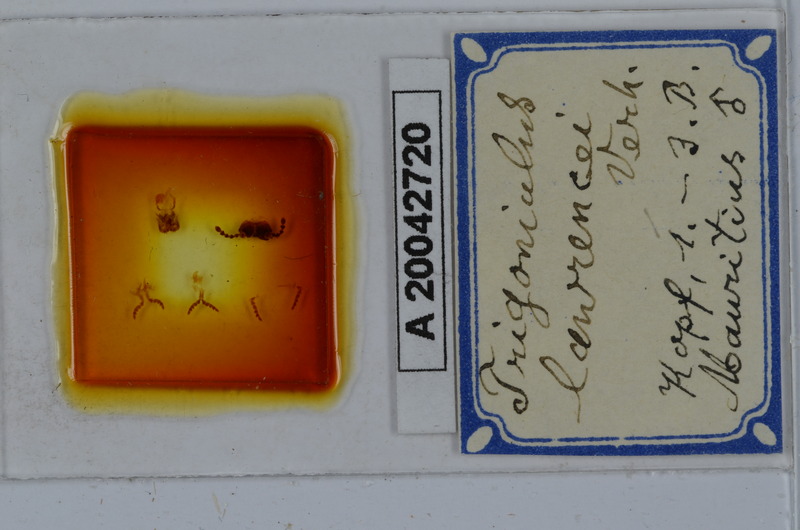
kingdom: Animalia
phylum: Arthropoda
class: Diplopoda
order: Spirobolida
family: Pachybolidae
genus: Leptogoniulus
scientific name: Leptogoniulus sorornus
